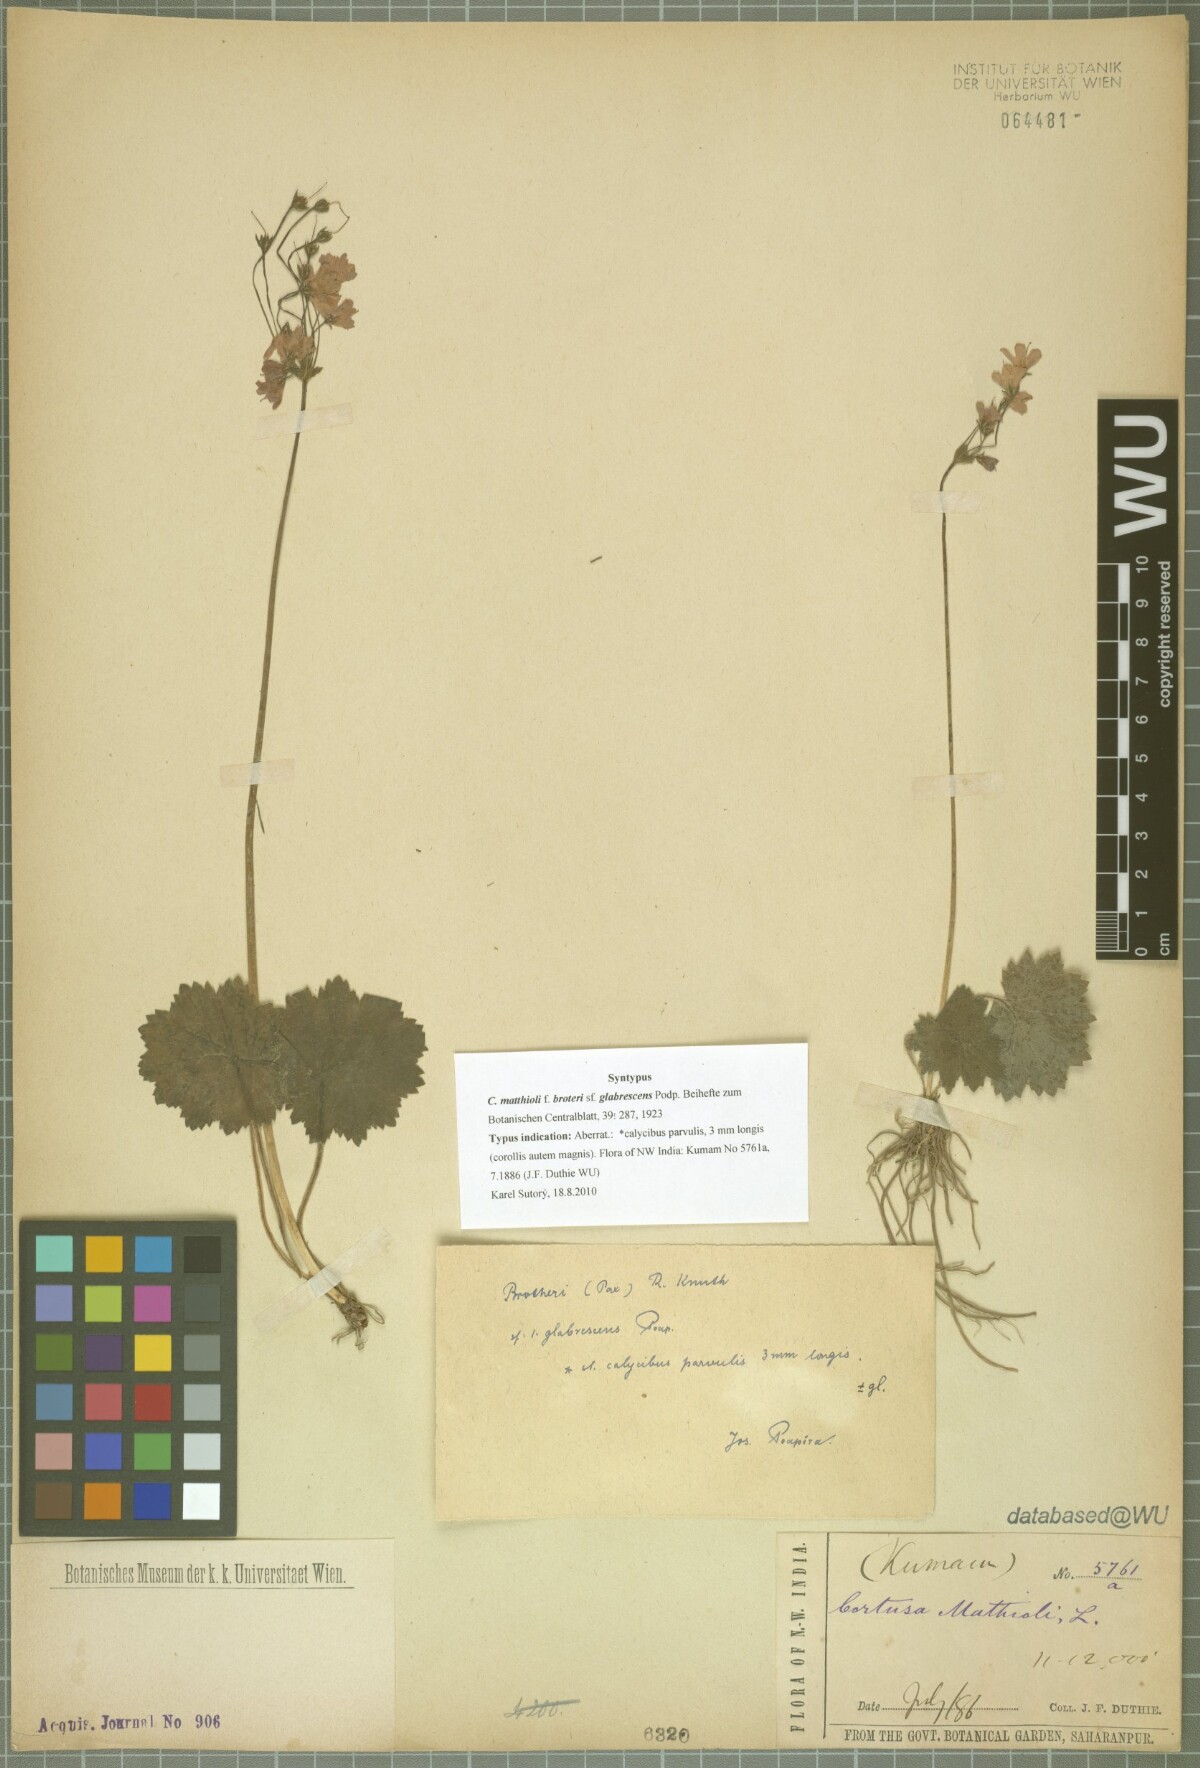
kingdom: Plantae
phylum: Tracheophyta
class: Magnoliopsida
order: Ericales
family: Primulaceae
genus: Primula
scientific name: Primula matthioli
